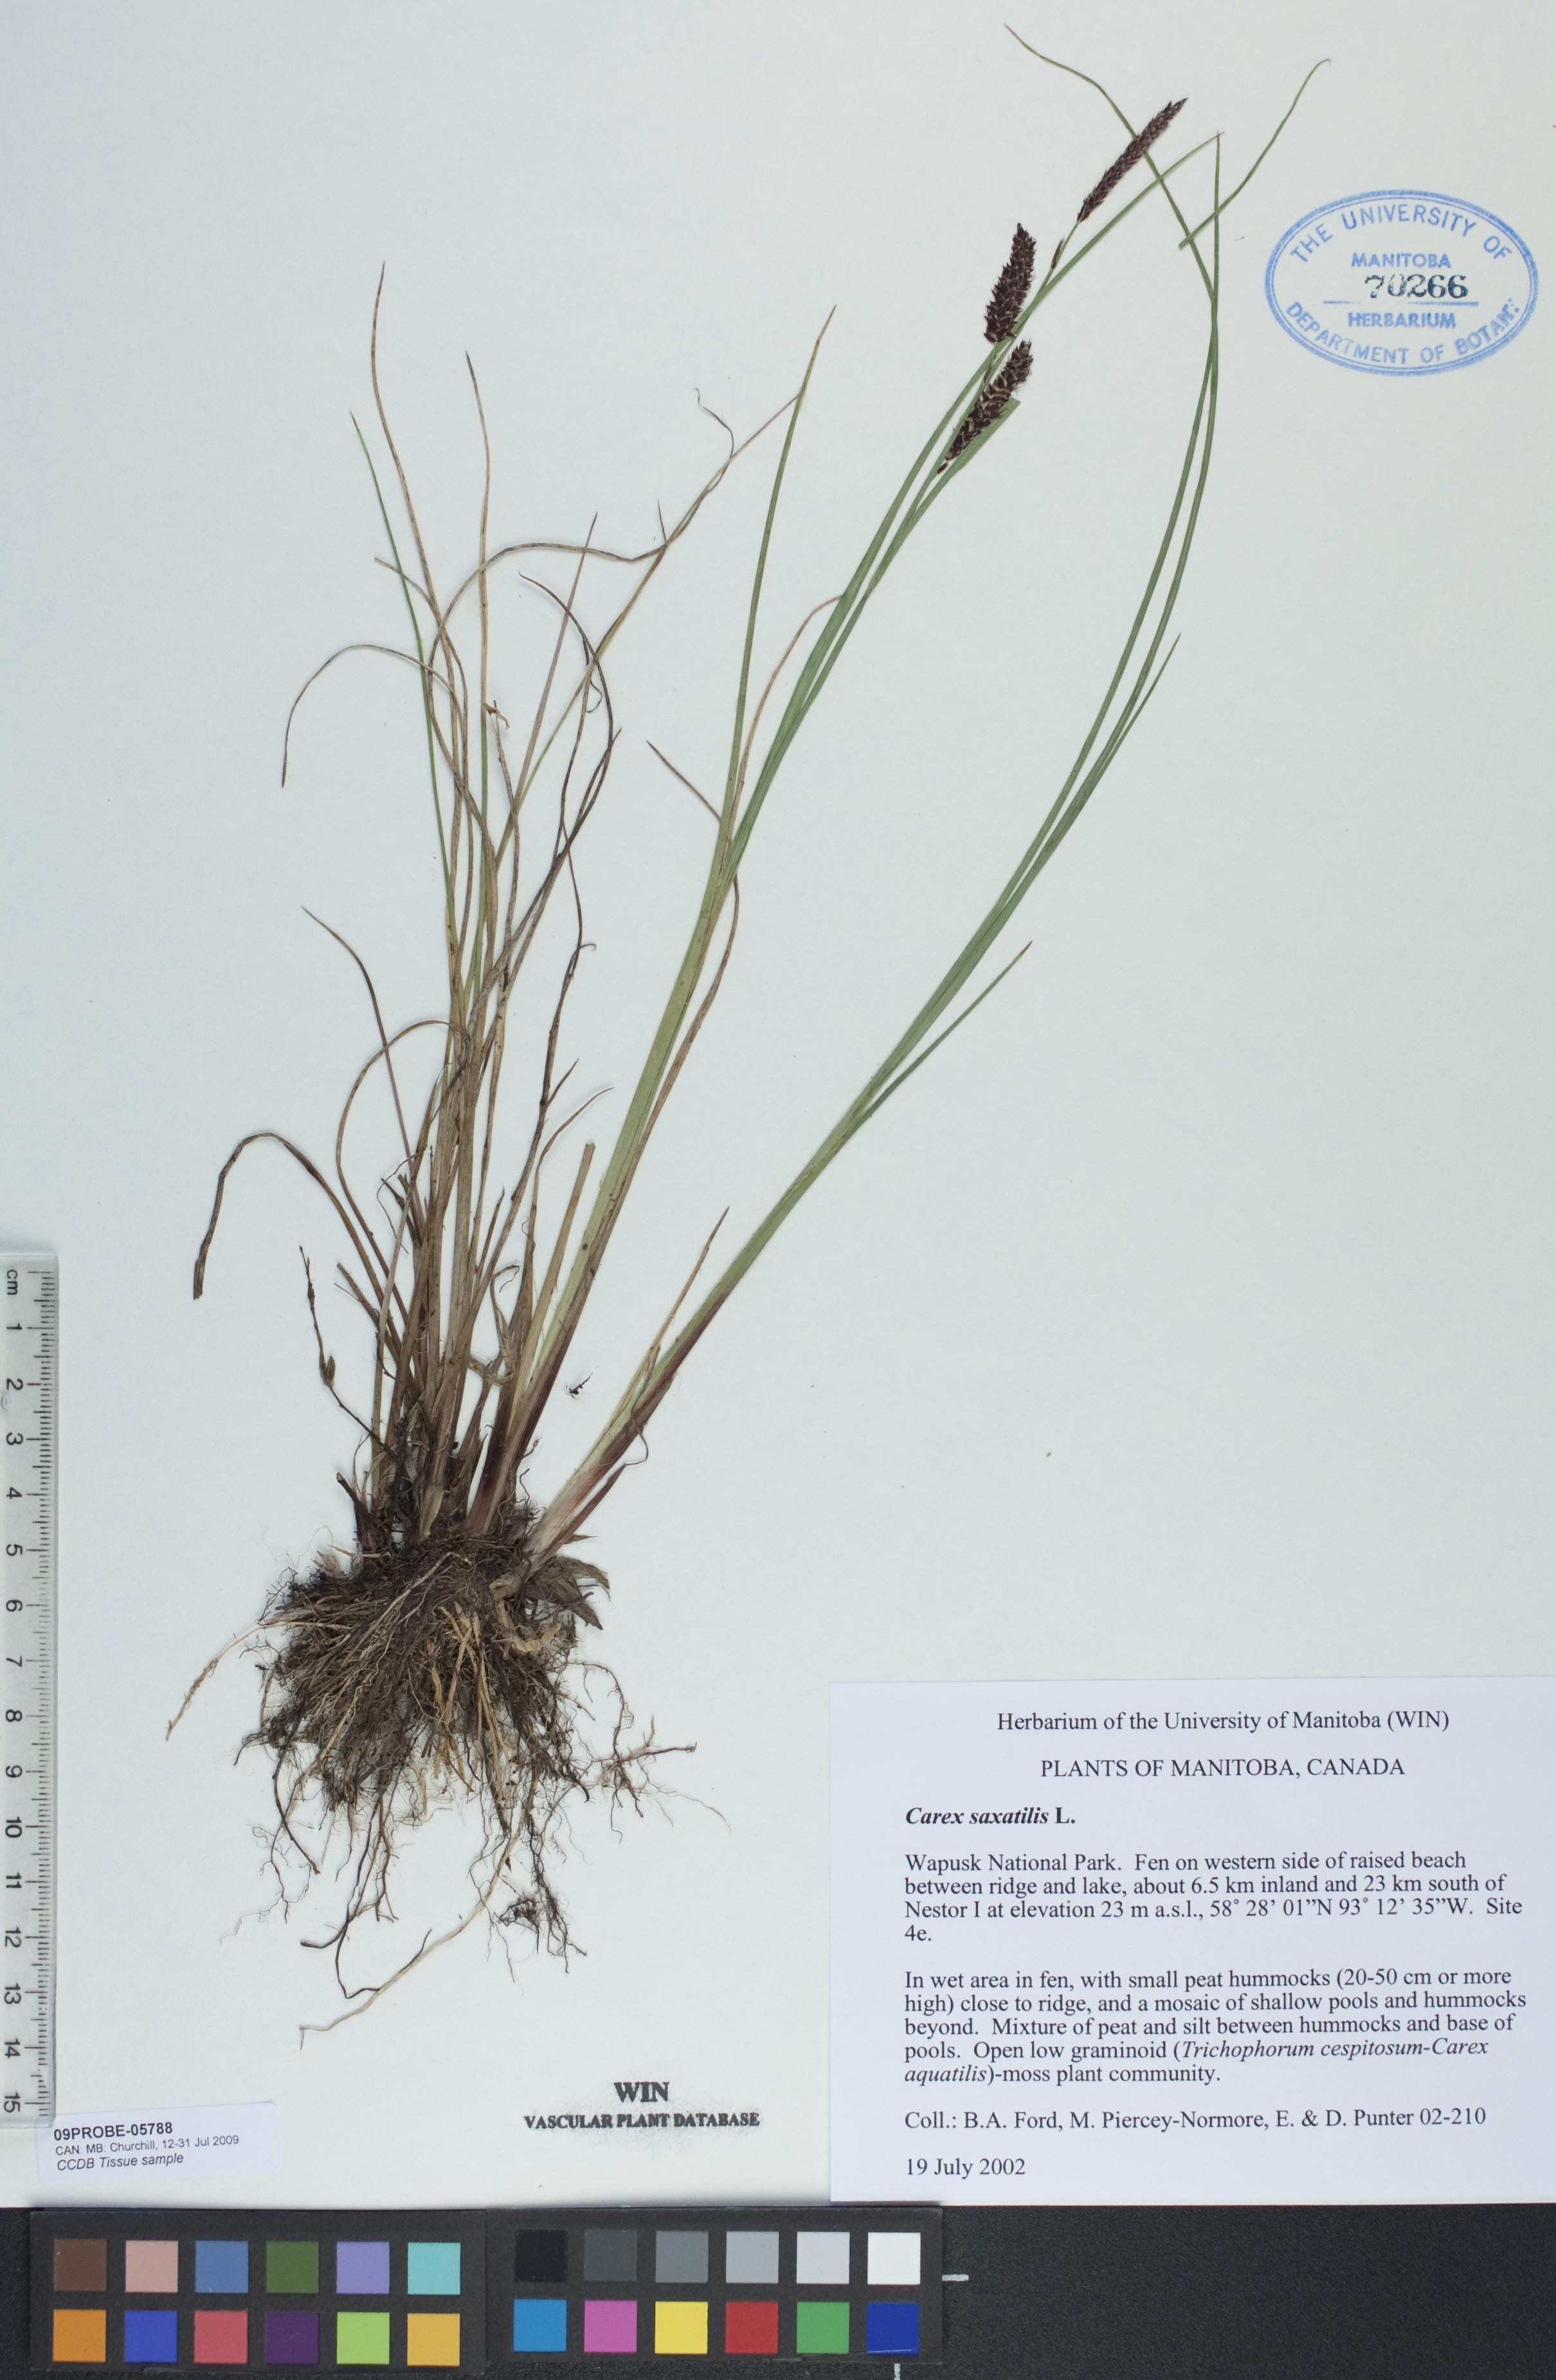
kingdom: Plantae
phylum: Tracheophyta
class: Liliopsida
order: Poales
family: Cyperaceae
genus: Carex
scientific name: Carex saxatilis
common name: Russet sedge
